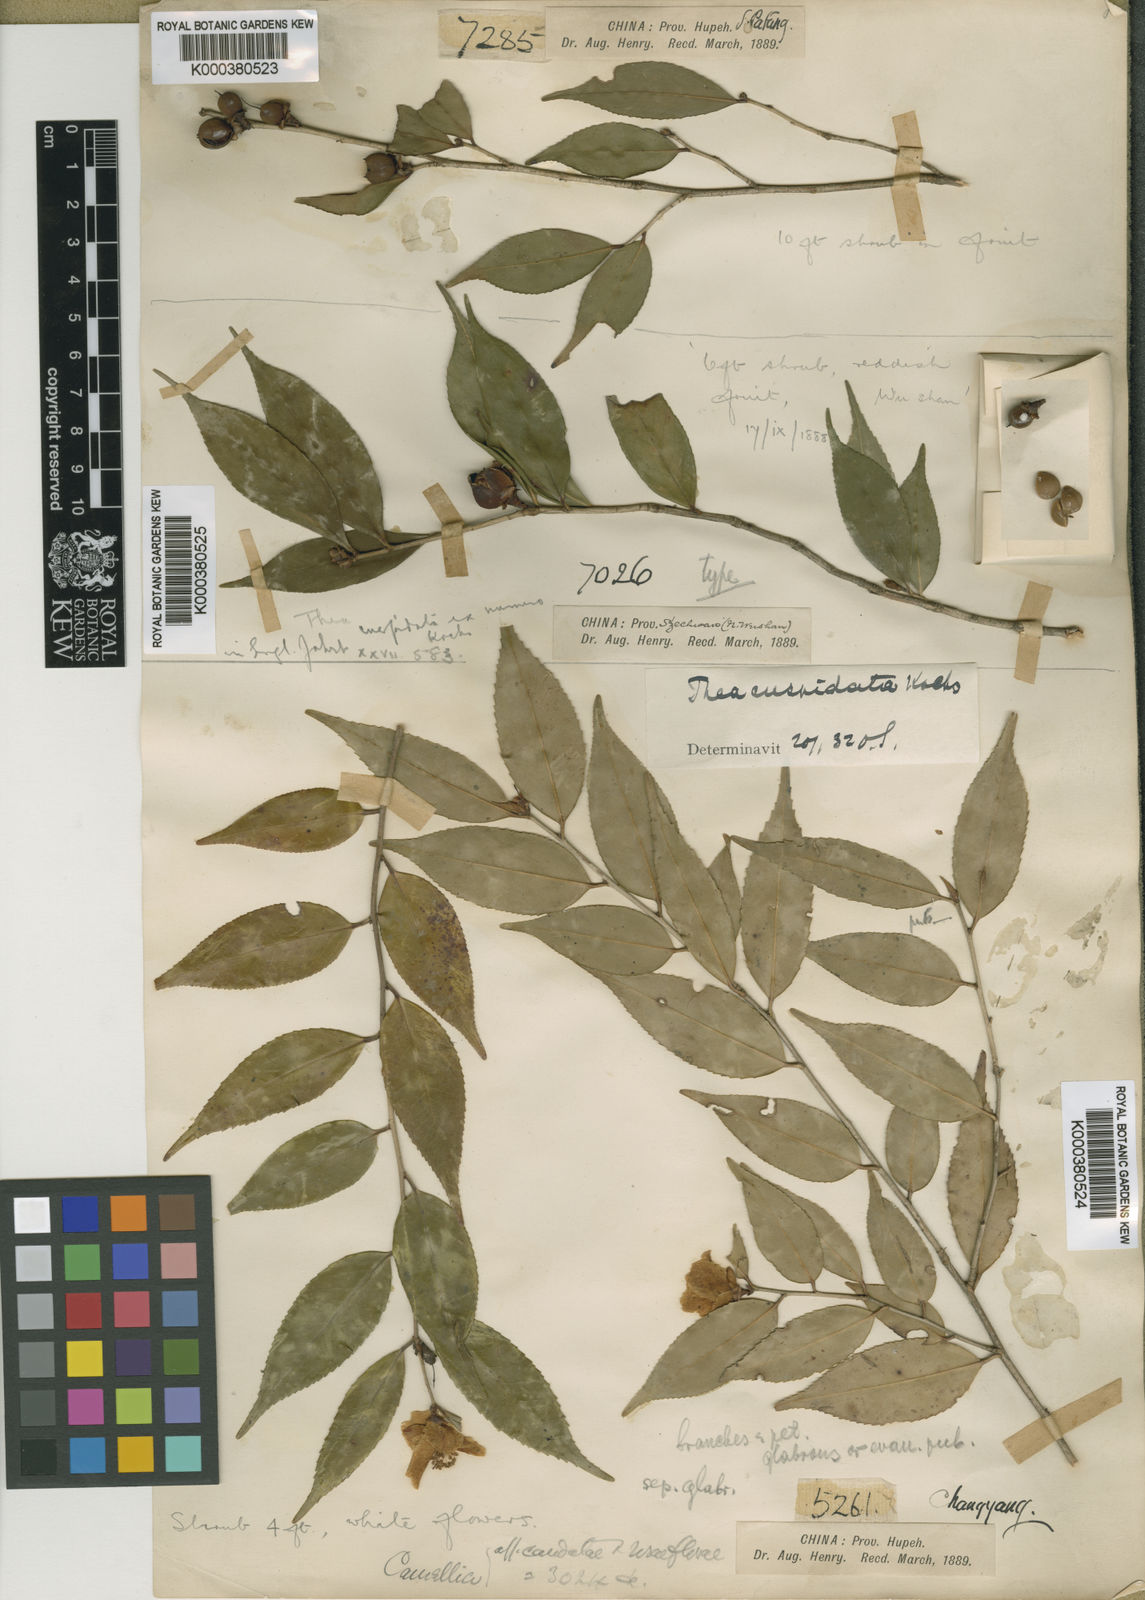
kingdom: Plantae
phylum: Tracheophyta
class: Magnoliopsida
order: Ericales
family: Theaceae
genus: Camellia
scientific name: Camellia cuspidata
